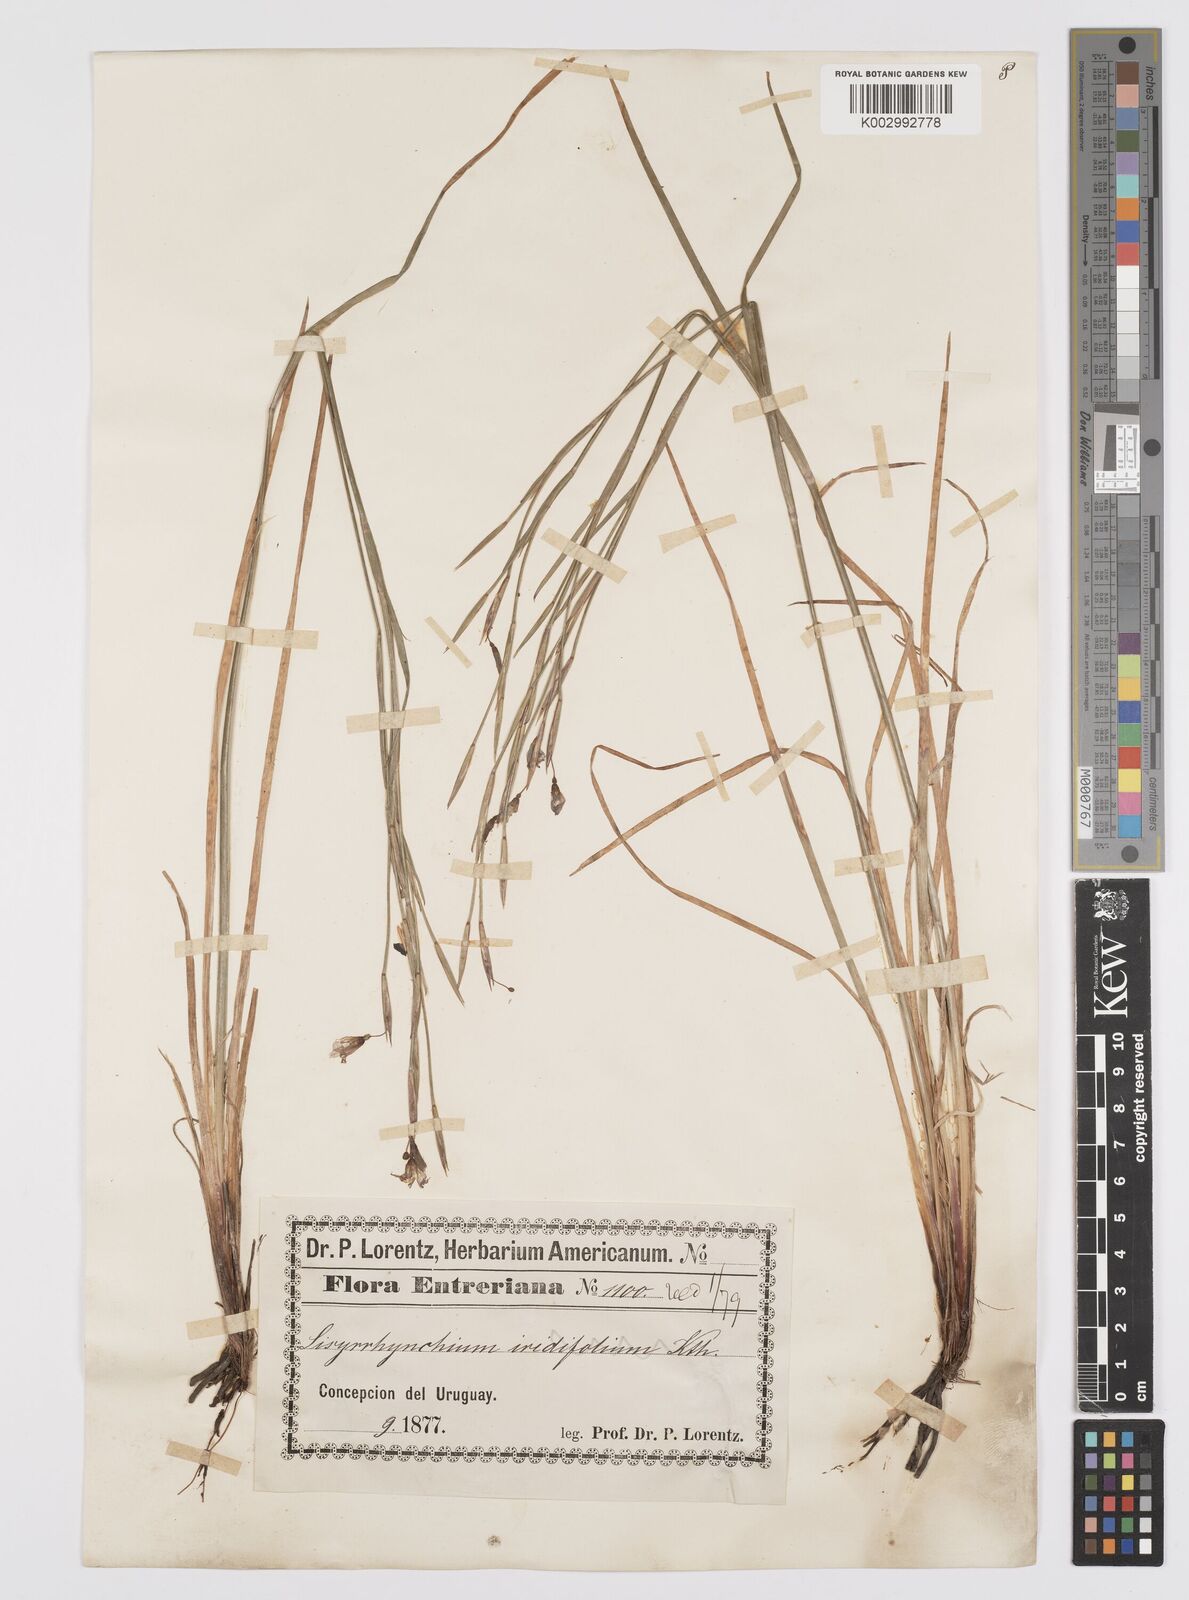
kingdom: Plantae
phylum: Tracheophyta
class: Liliopsida
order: Asparagales
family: Iridaceae
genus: Sisyrinchium
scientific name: Sisyrinchium chilense
